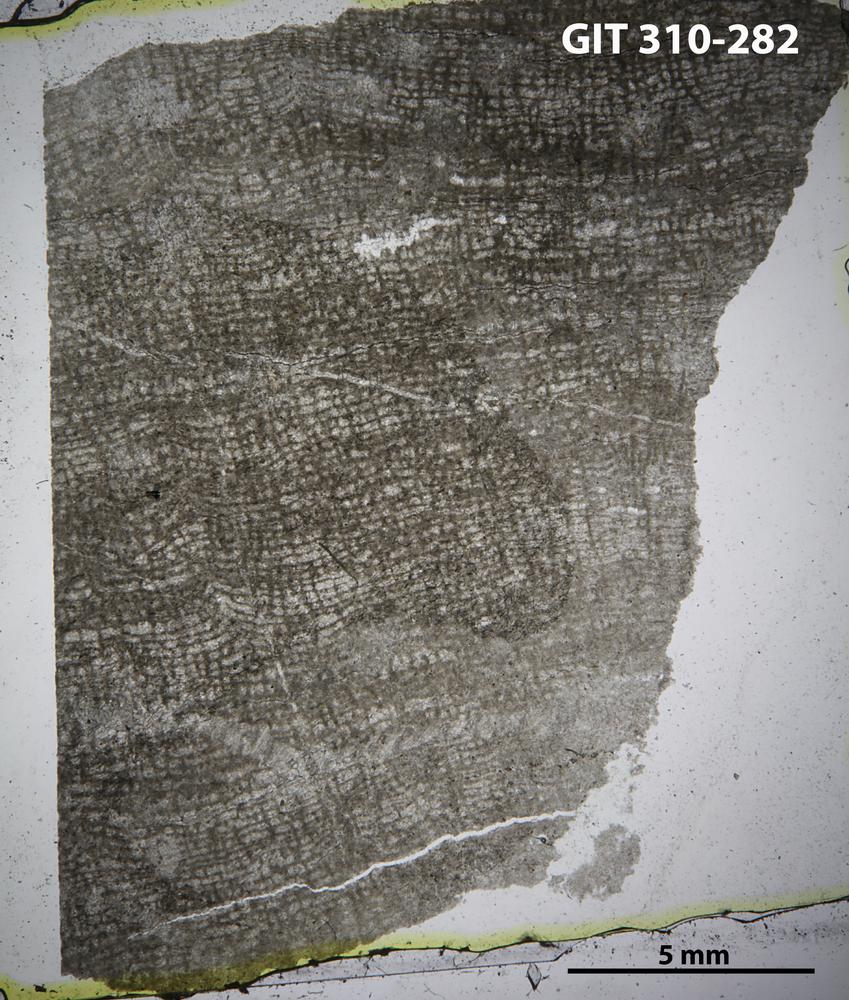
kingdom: Animalia
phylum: Porifera
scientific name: Porifera
